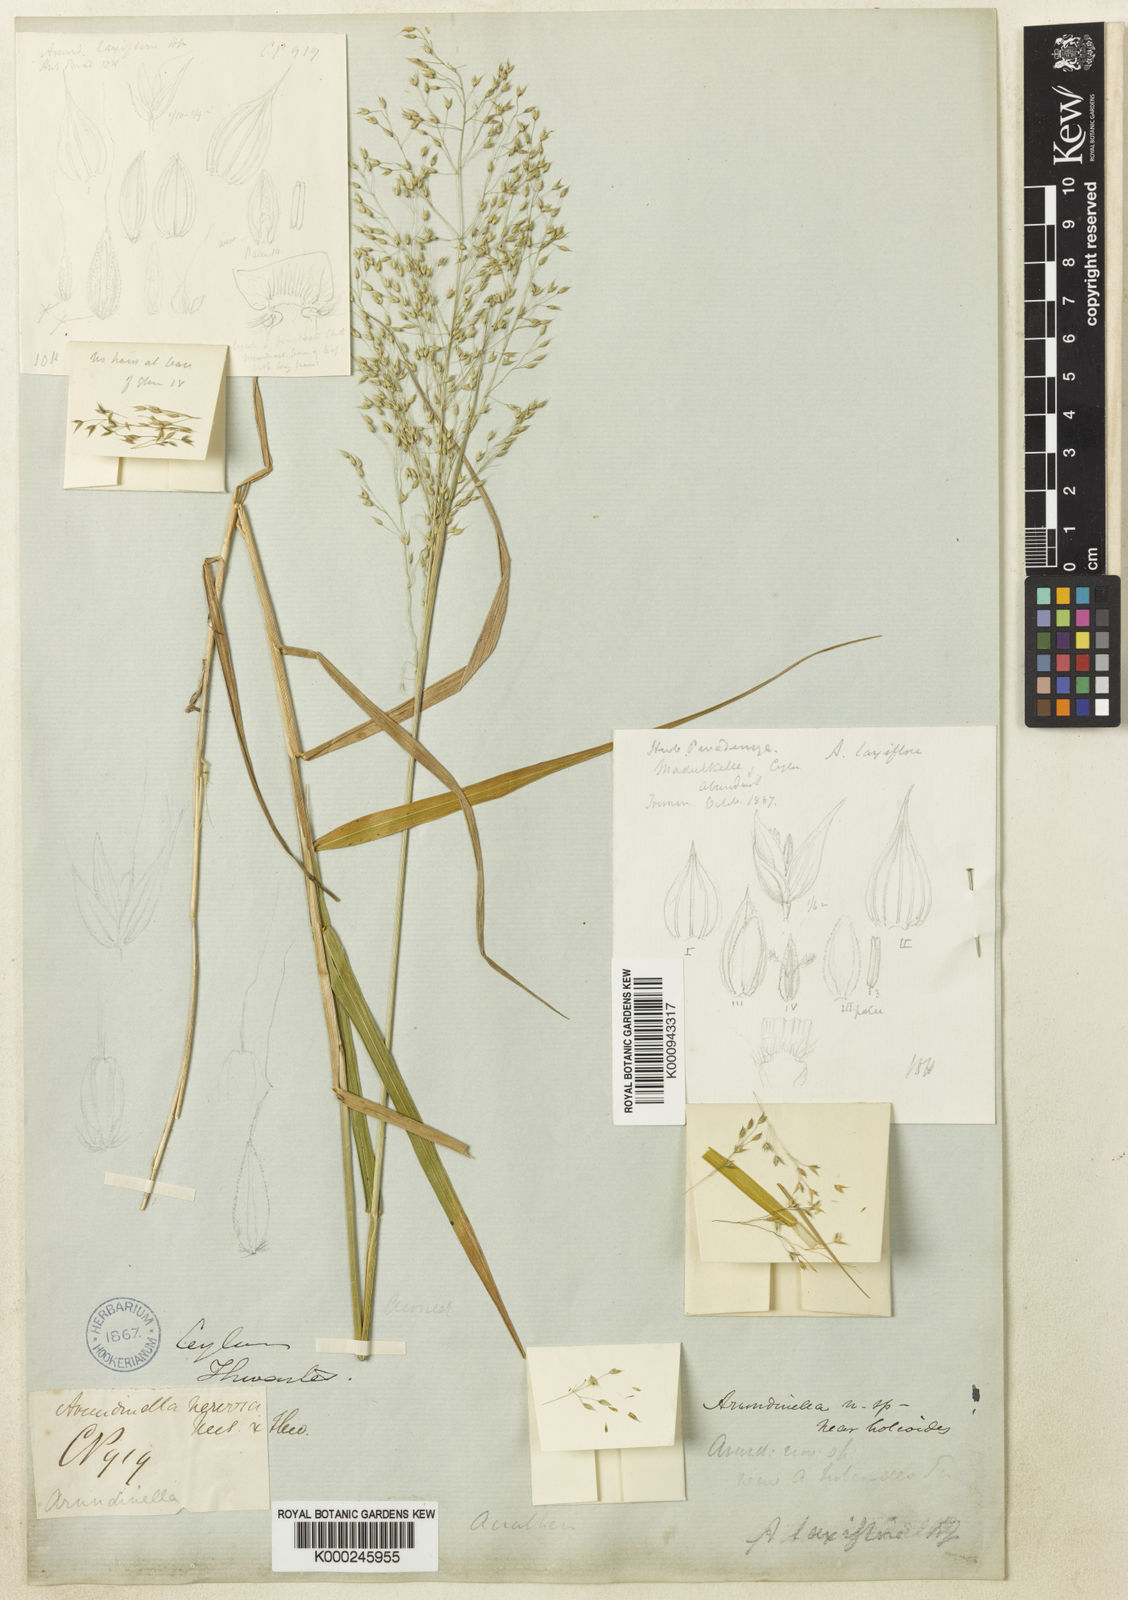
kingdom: Plantae
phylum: Tracheophyta
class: Liliopsida
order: Poales
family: Poaceae
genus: Arundinella
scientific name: Arundinella laxiflora
